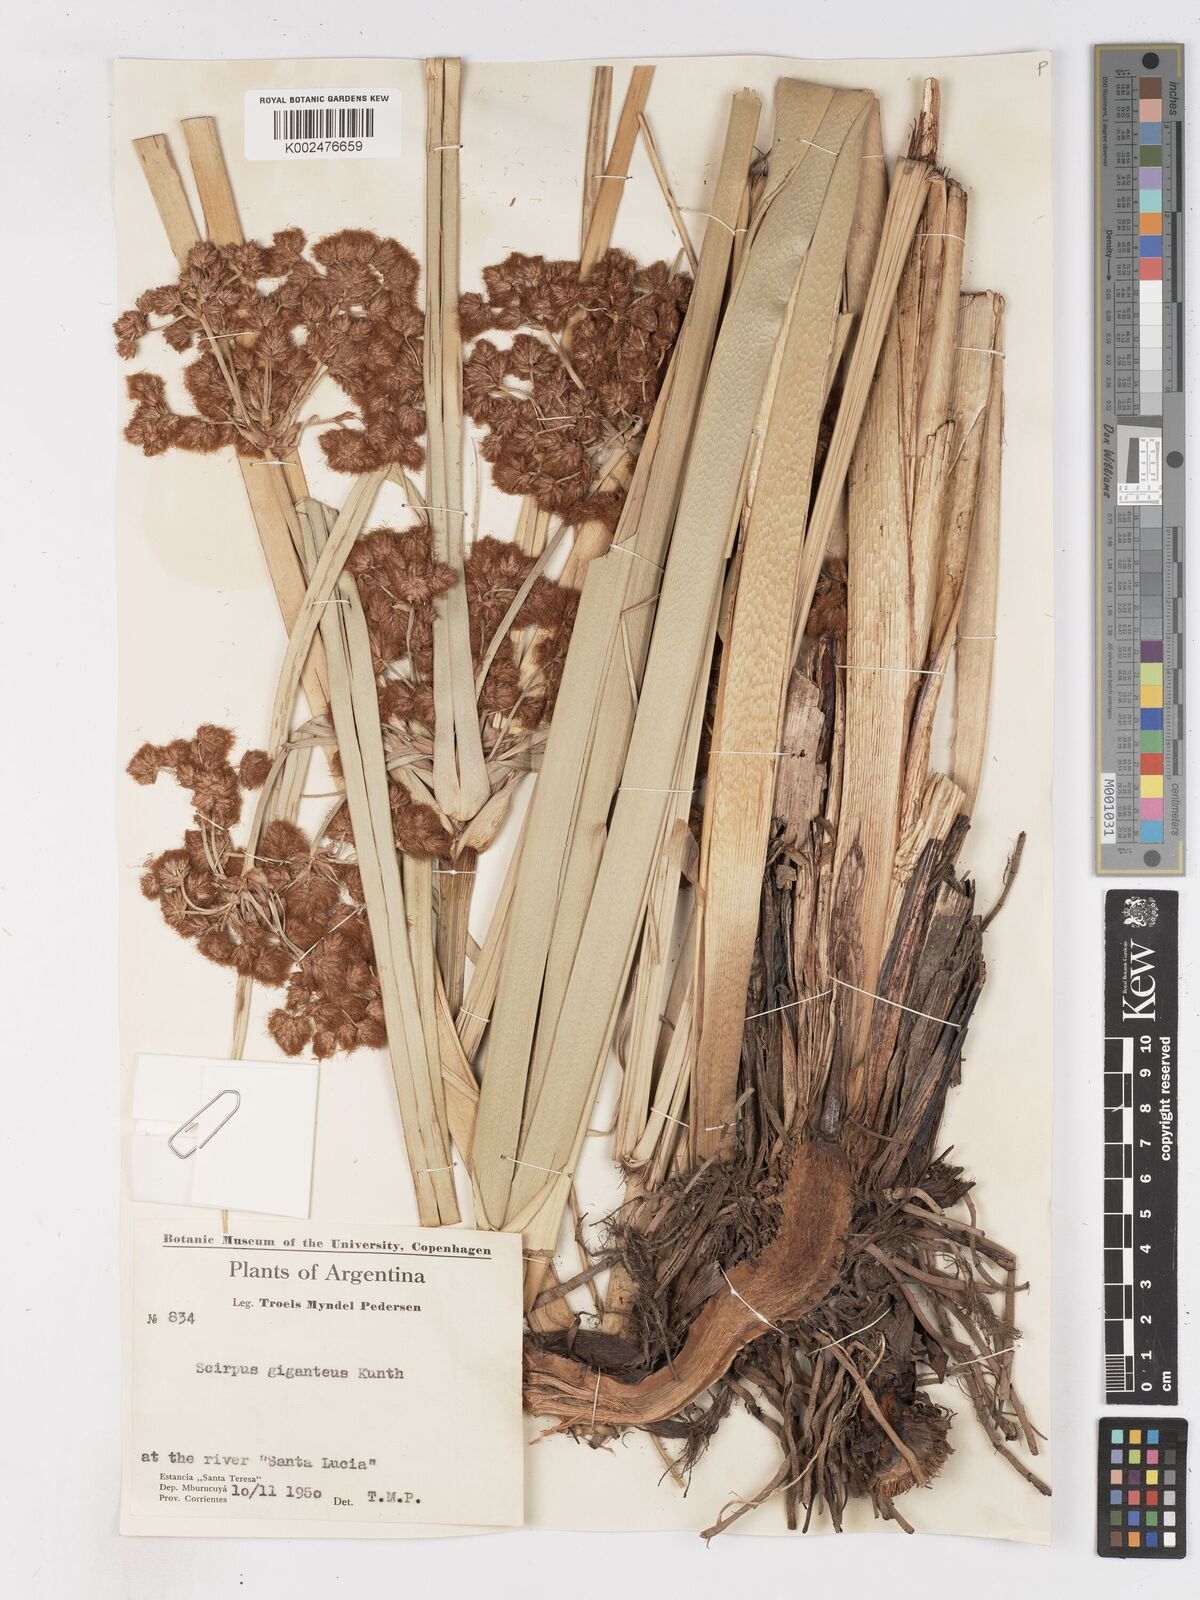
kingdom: Plantae
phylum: Tracheophyta
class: Liliopsida
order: Poales
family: Cyperaceae
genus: Cyperus
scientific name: Cyperus byssaceus
